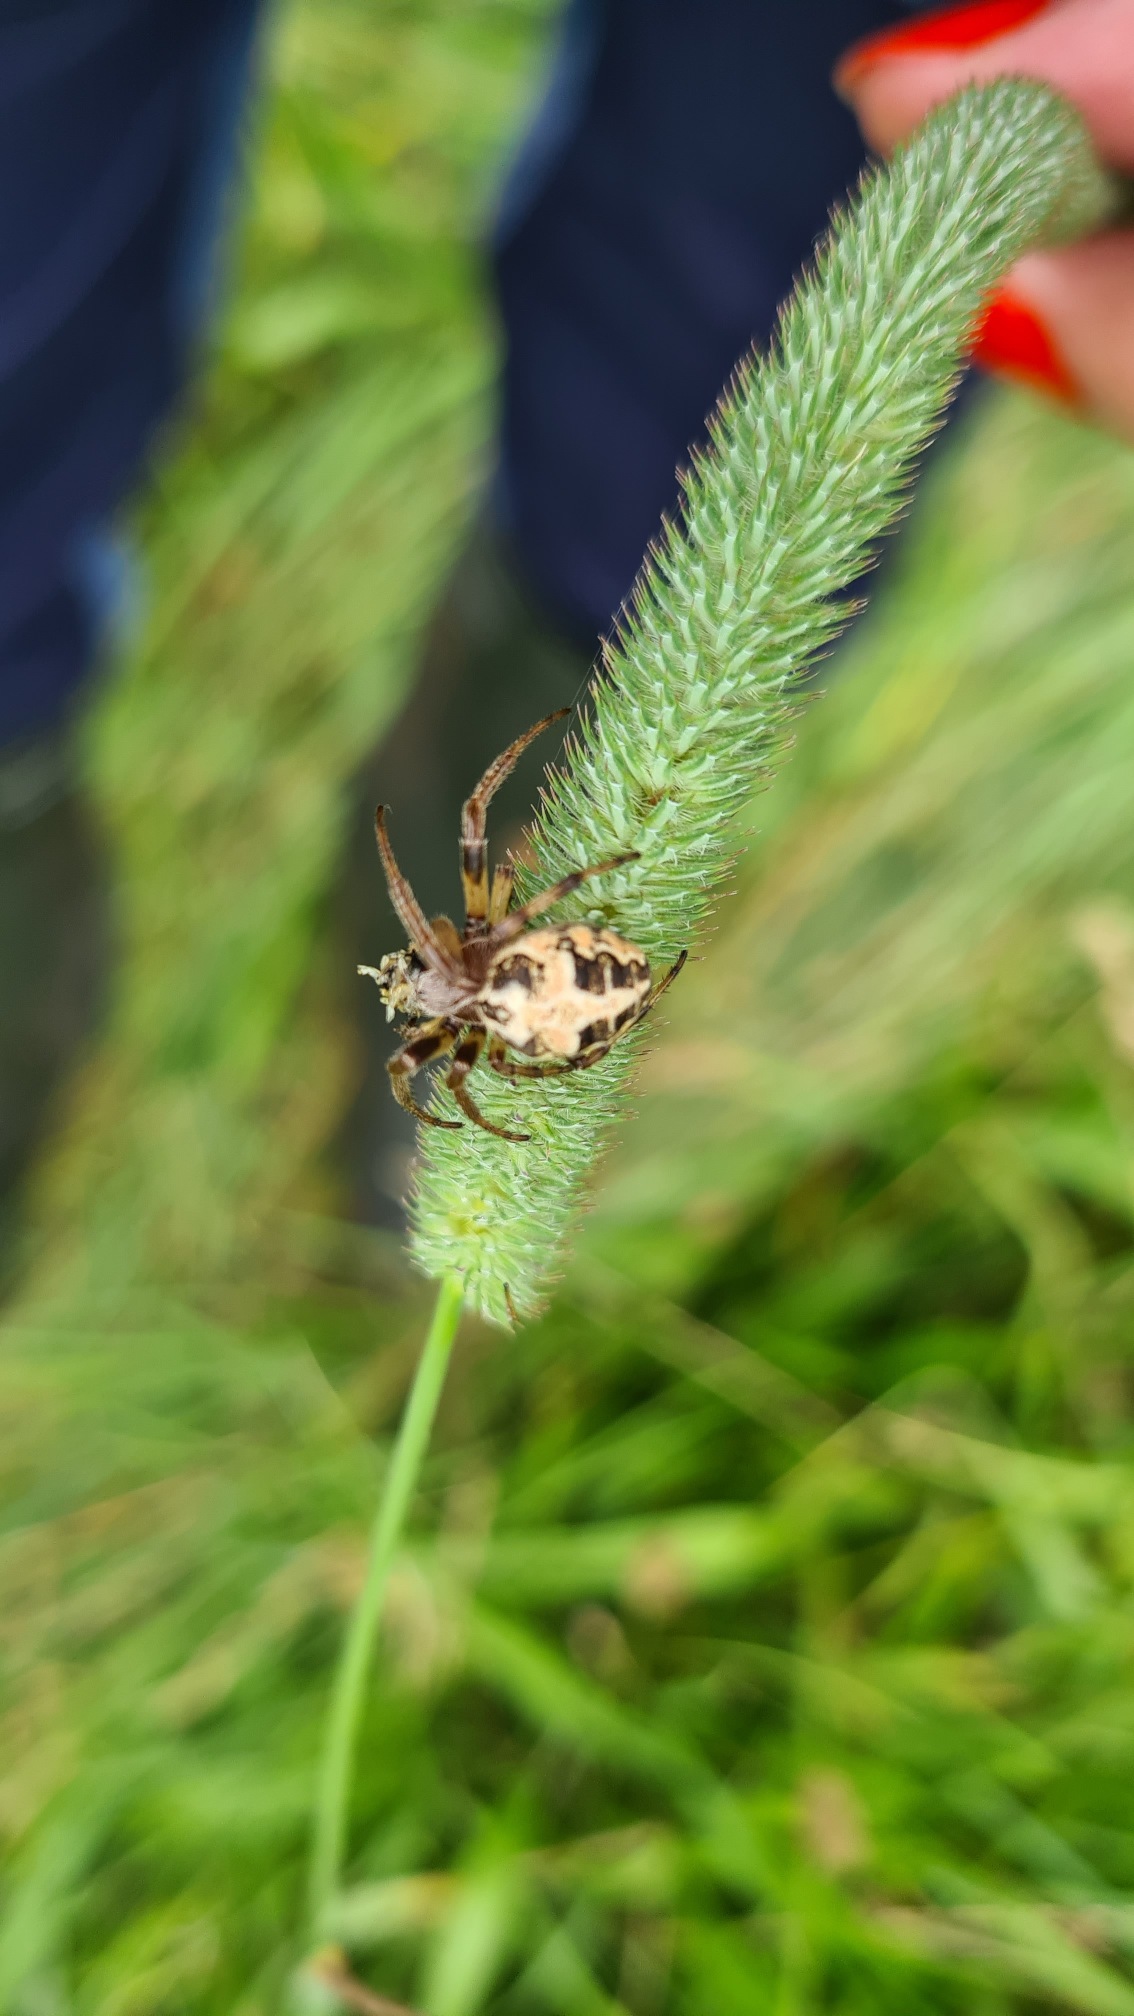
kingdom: Animalia
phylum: Arthropoda
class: Arachnida
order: Araneae
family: Araneidae
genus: Larinioides
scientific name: Larinioides cornutus
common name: Sivhjulspinder
